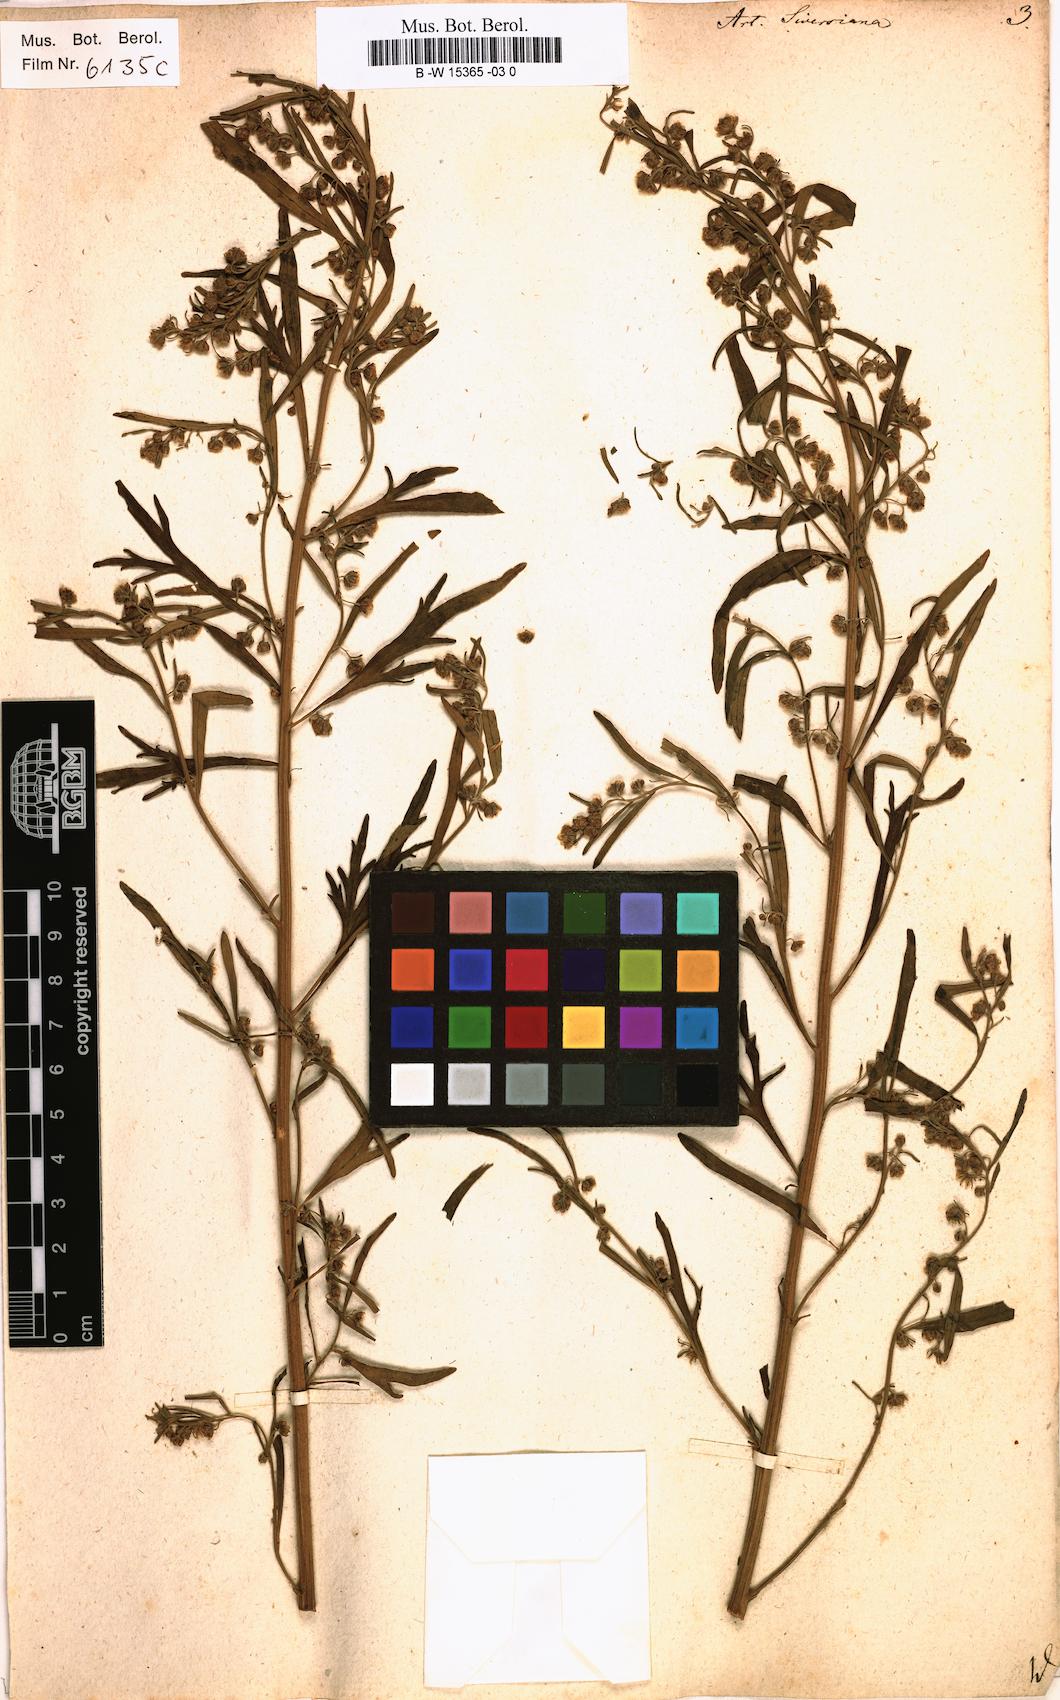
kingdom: Plantae
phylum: Tracheophyta
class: Magnoliopsida
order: Asterales
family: Asteraceae
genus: Artemisia
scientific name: Artemisia sieversiana
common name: Sieversian wormwood
